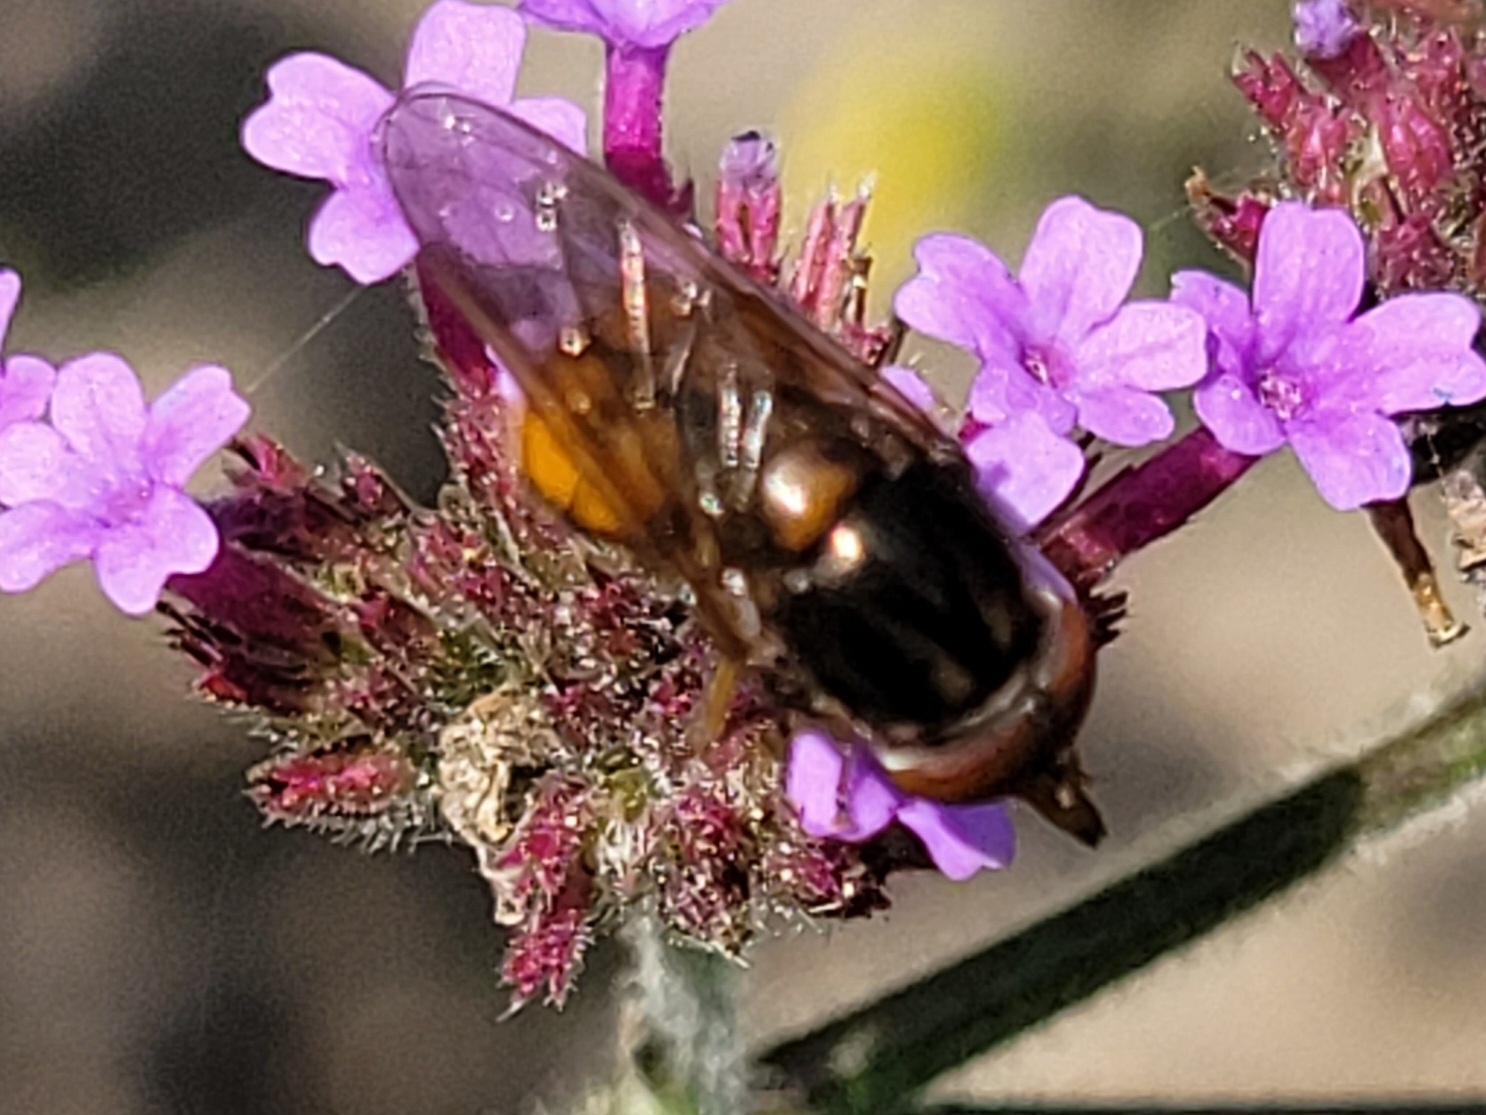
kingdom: Animalia
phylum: Arthropoda
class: Insecta
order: Diptera
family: Syrphidae
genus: Rhingia
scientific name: Rhingia campestris
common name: Mark-snabelsvirreflue
